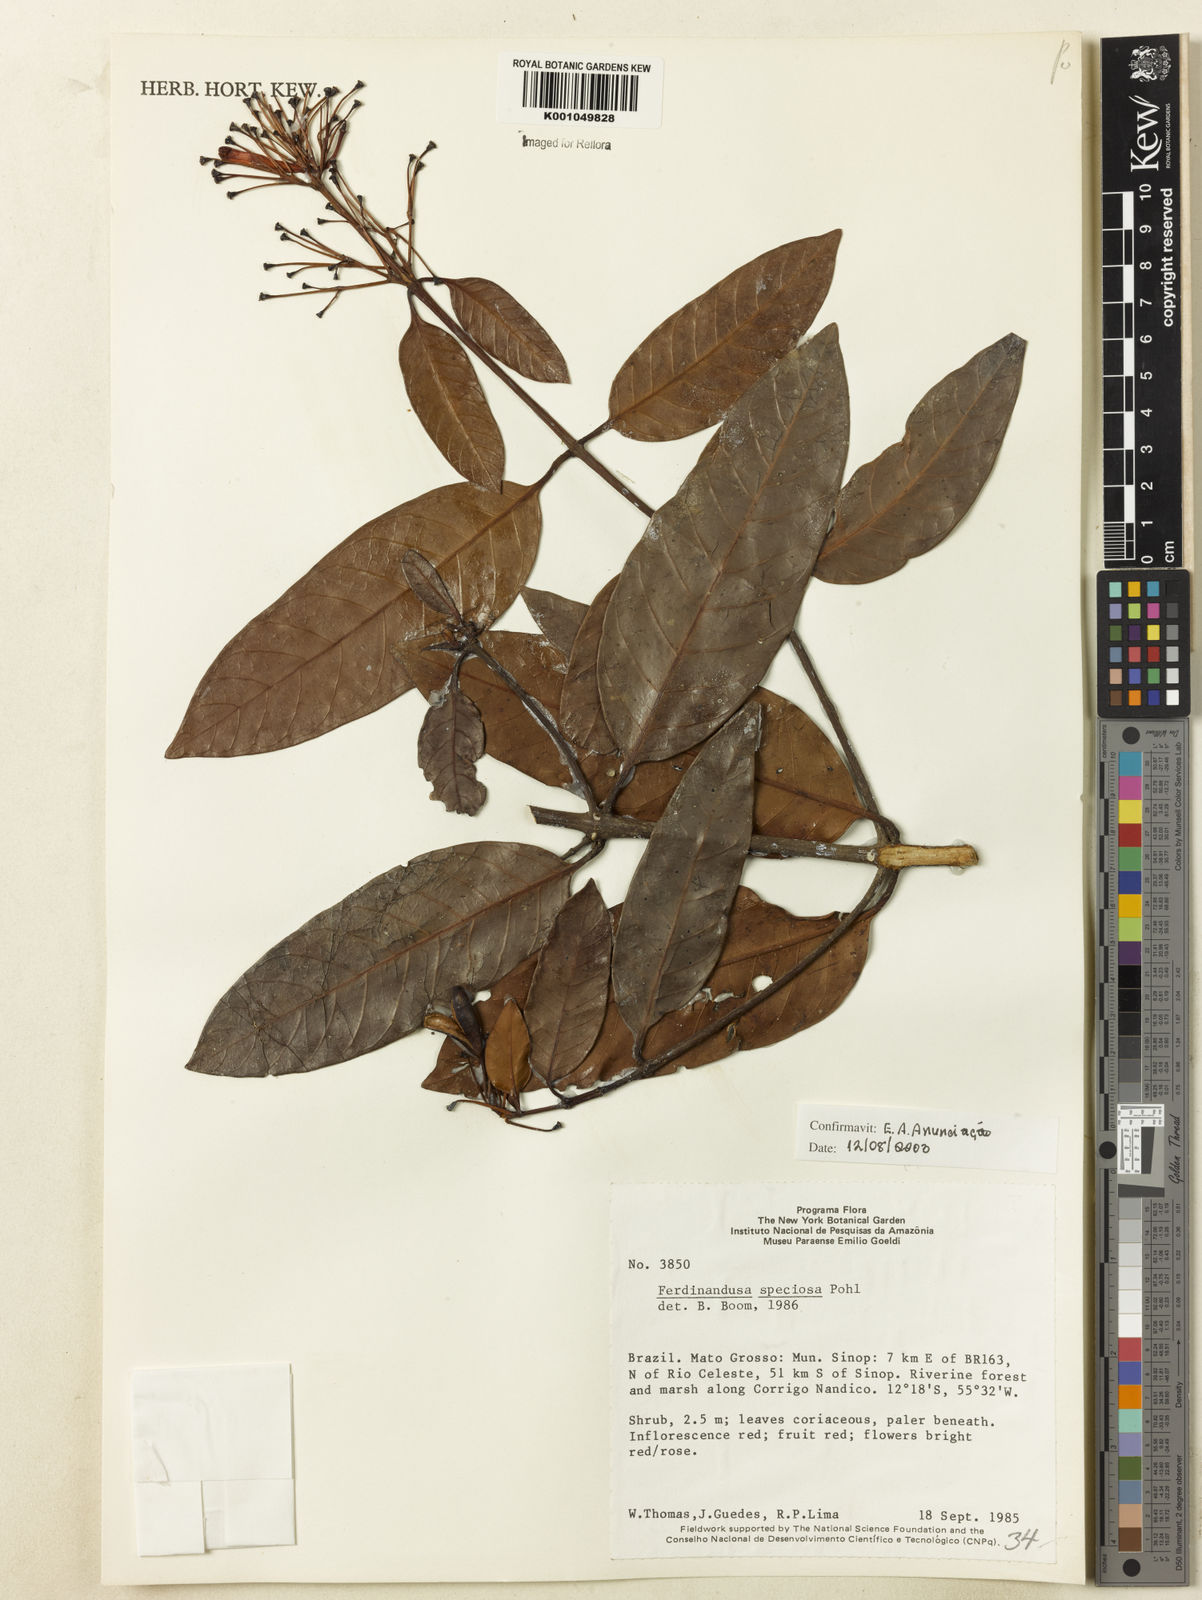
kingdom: Plantae
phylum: Tracheophyta
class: Magnoliopsida
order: Gentianales
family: Rubiaceae
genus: Ferdinandusa
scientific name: Ferdinandusa speciosa
